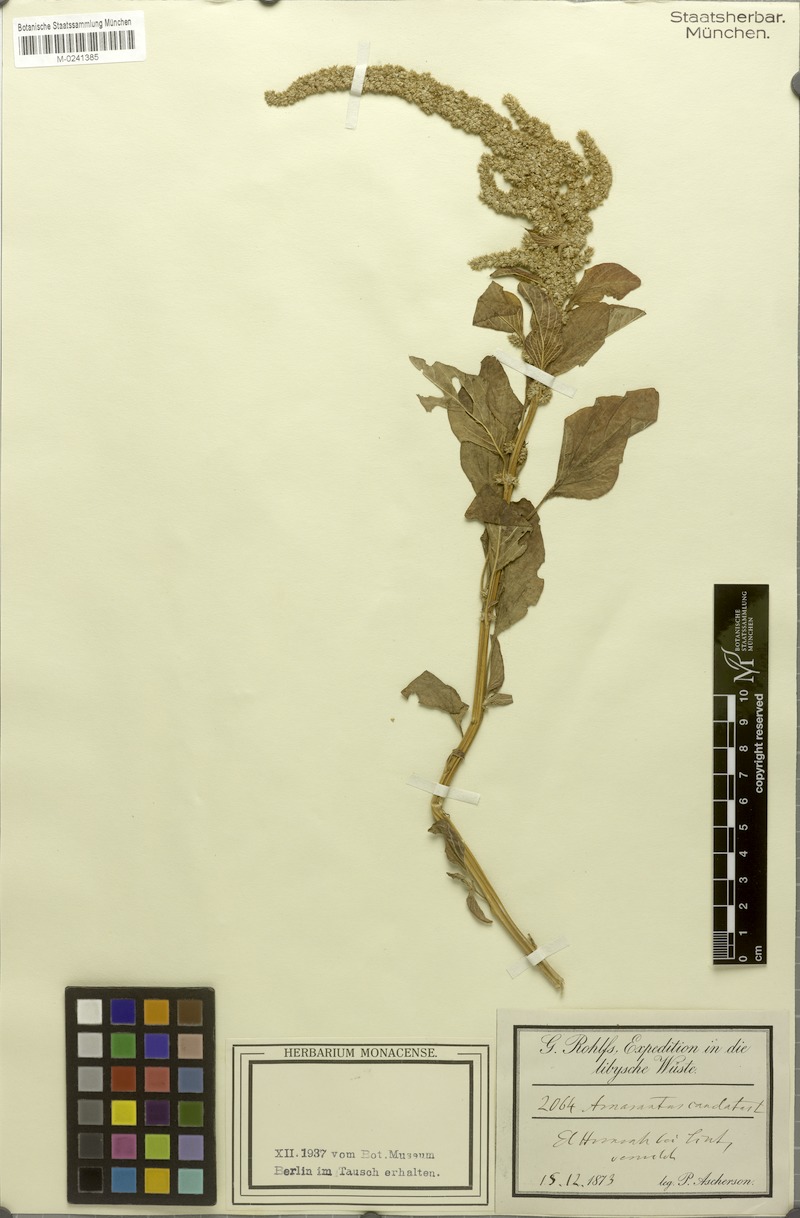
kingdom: Plantae
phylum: Tracheophyta
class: Magnoliopsida
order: Caryophyllales
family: Amaranthaceae
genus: Amaranthus
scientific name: Amaranthus caudatus
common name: Love-lies-bleeding
